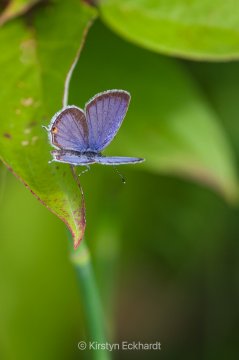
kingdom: Animalia
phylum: Arthropoda
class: Insecta
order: Lepidoptera
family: Lycaenidae
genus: Elkalyce
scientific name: Elkalyce comyntas
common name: Eastern Tailed-Blue
